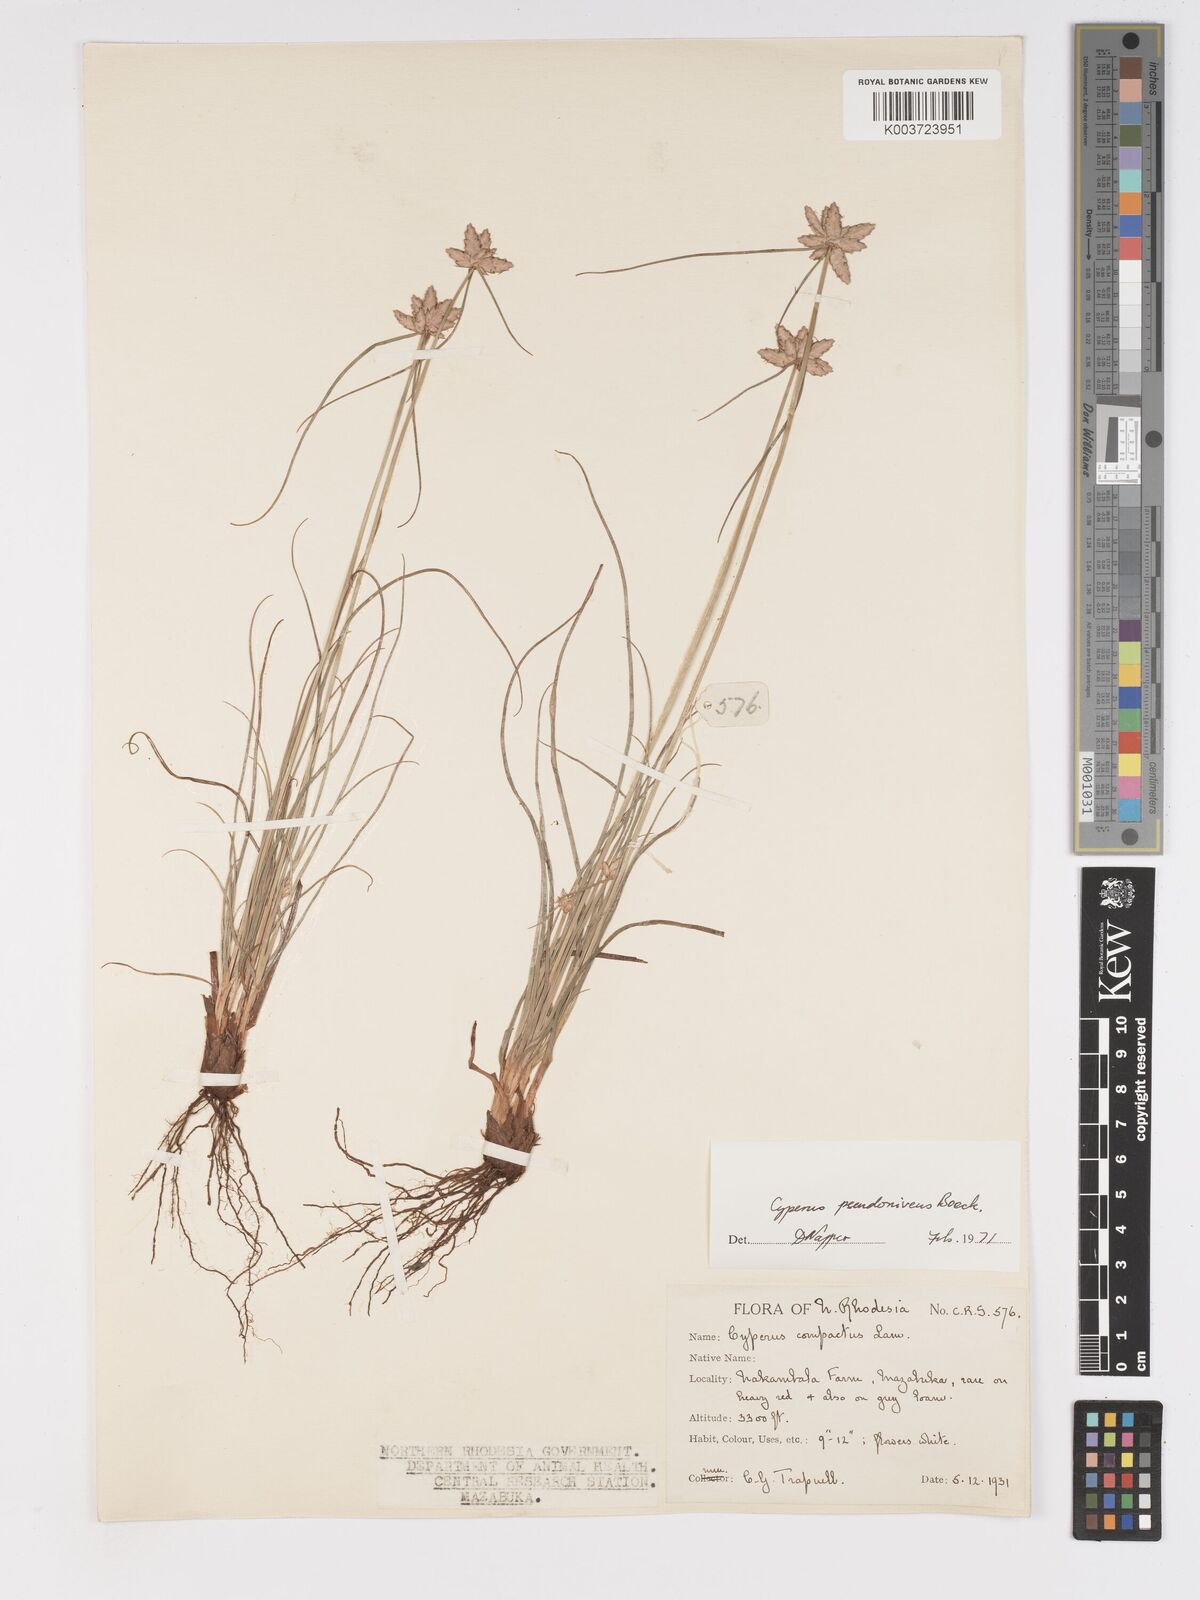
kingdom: Plantae
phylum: Tracheophyta
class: Liliopsida
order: Poales
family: Cyperaceae
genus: Cyperus
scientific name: Cyperus margaritaceus
